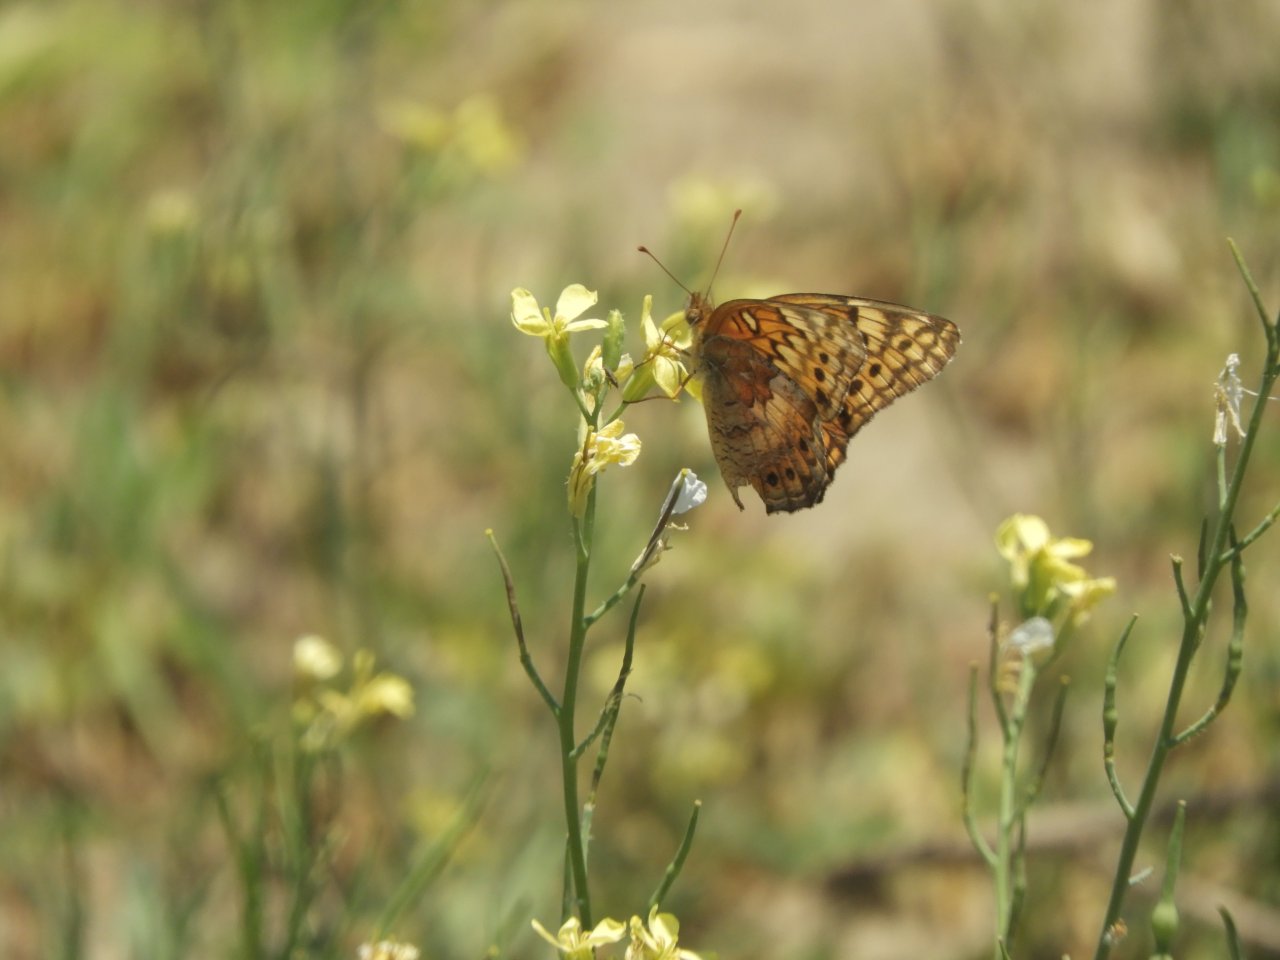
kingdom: Animalia
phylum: Arthropoda
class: Insecta
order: Lepidoptera
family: Nymphalidae
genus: Euptoieta
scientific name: Euptoieta claudia
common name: Variegated Fritillary
